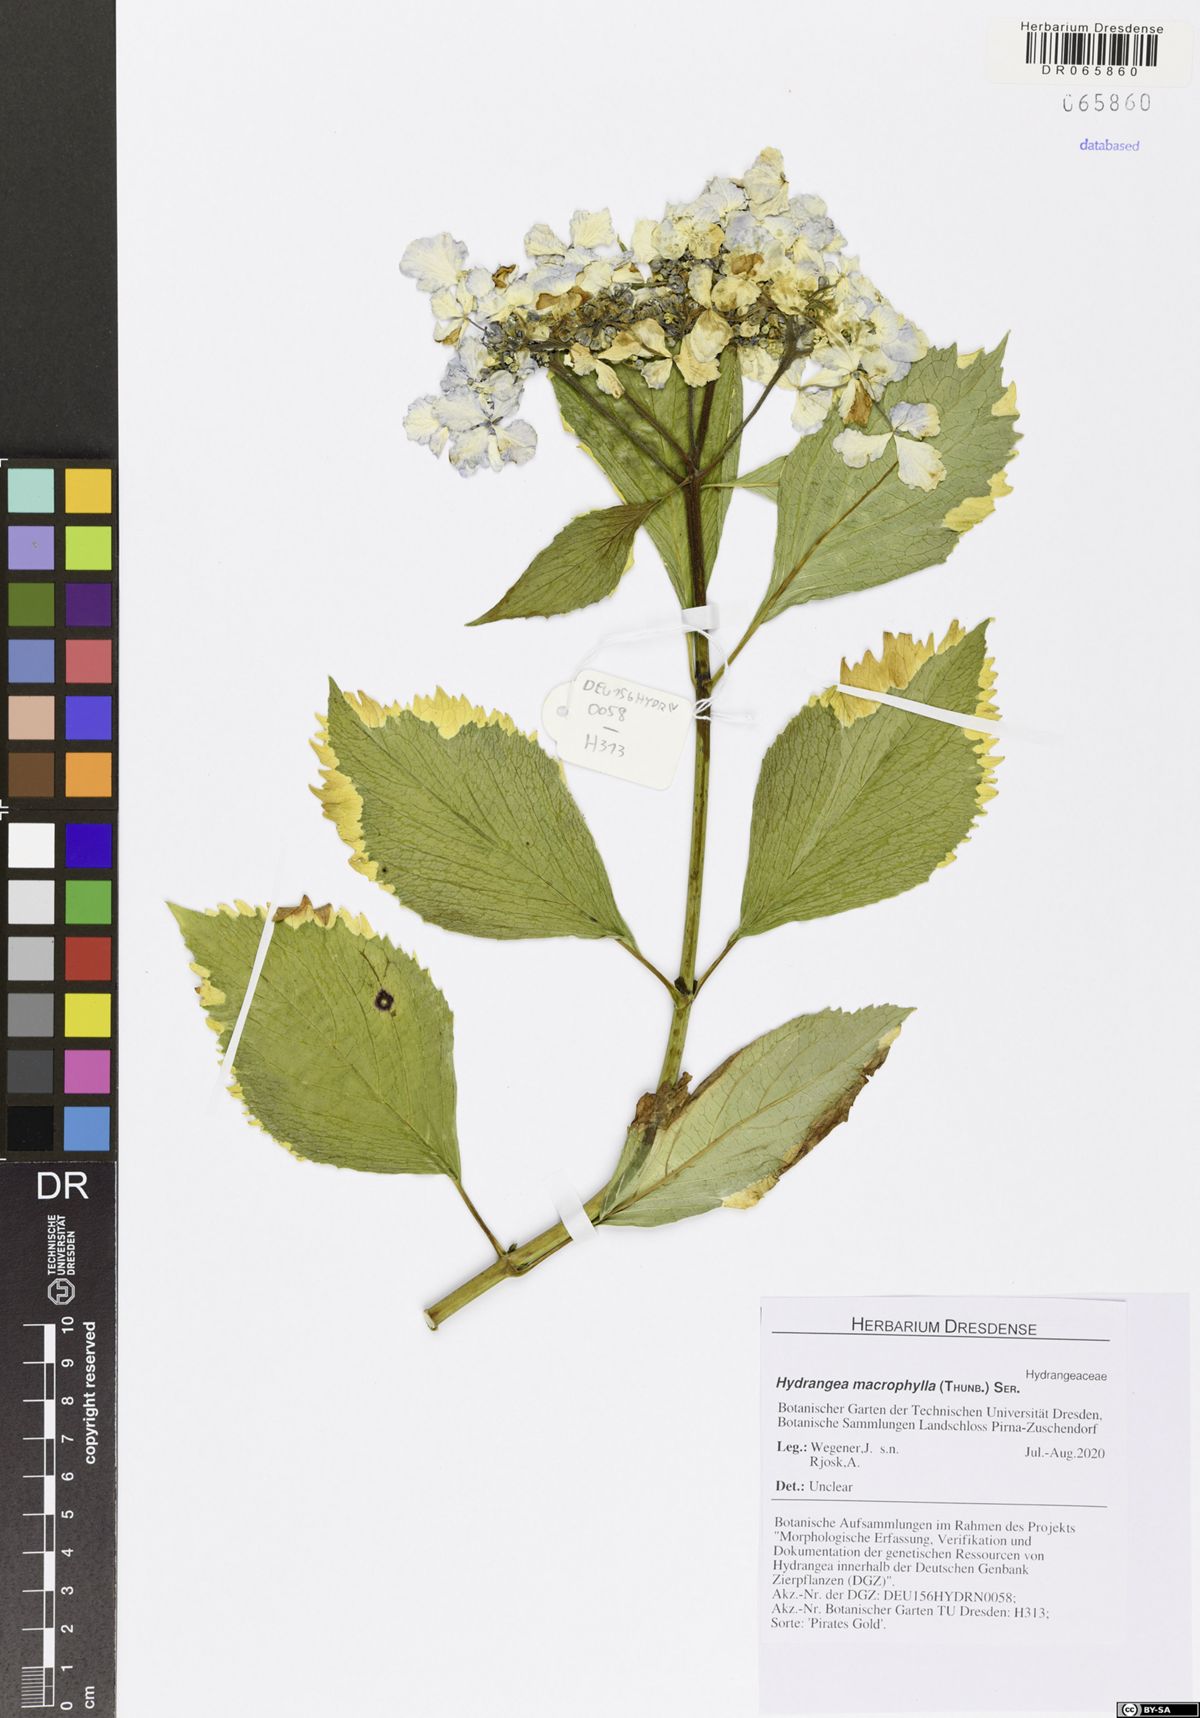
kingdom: Plantae
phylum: Tracheophyta
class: Magnoliopsida
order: Cornales
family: Hydrangeaceae
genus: Hydrangea
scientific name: Hydrangea macrophylla
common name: Hydrangea
